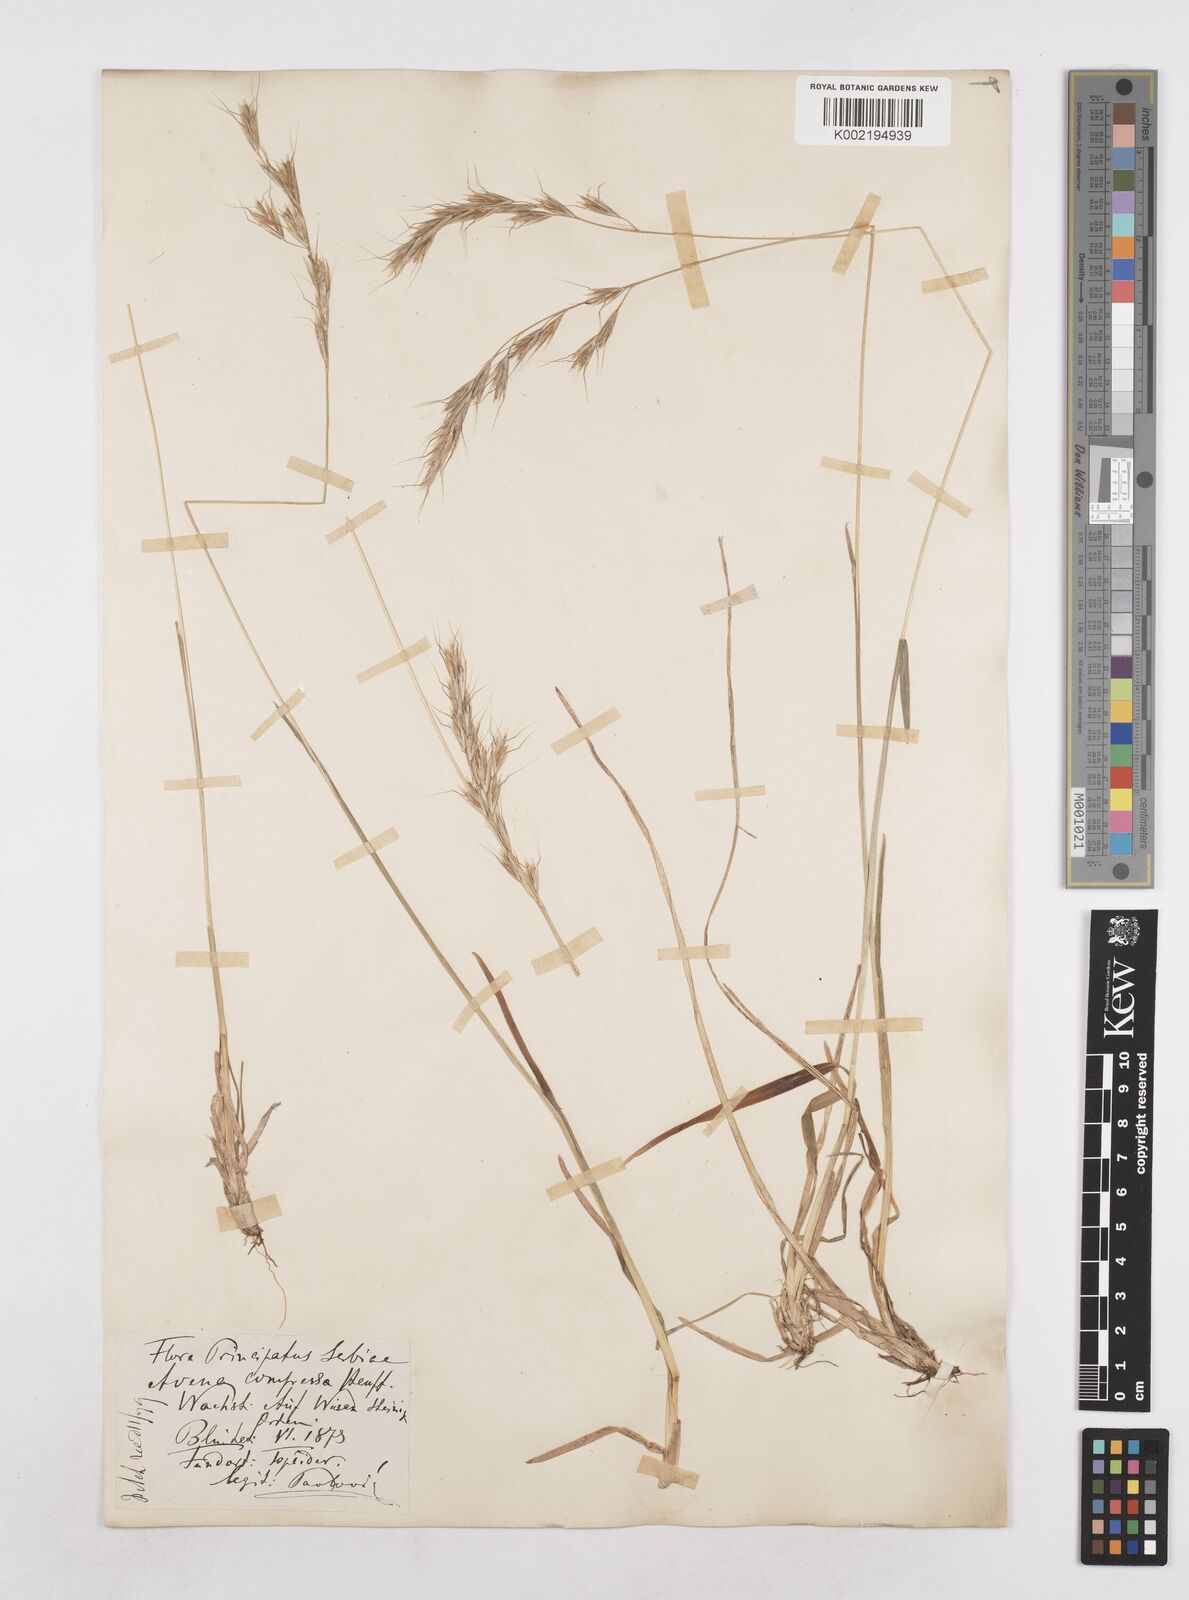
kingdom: Plantae
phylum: Tracheophyta
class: Liliopsida
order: Poales
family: Poaceae
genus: Helictochloa
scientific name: Helictochloa compressa
